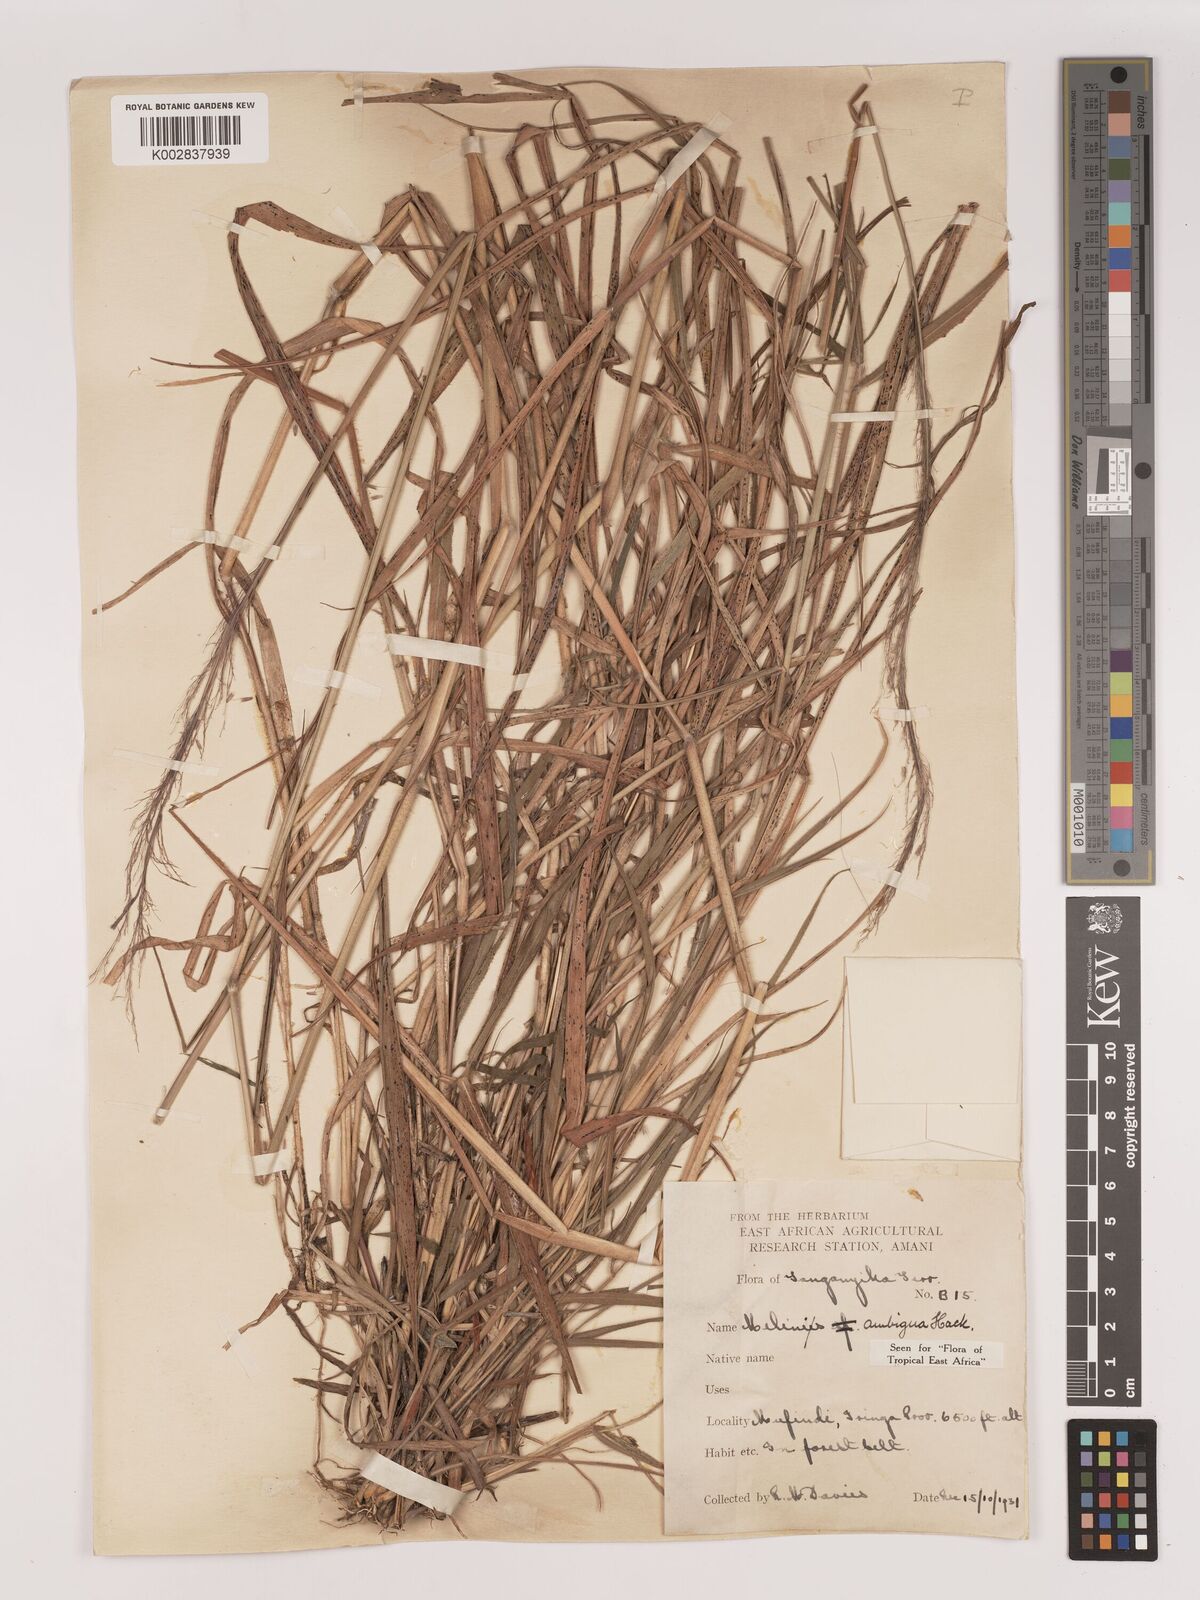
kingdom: Plantae
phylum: Tracheophyta
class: Liliopsida
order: Poales
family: Poaceae
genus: Melinis
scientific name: Melinis ambigua
